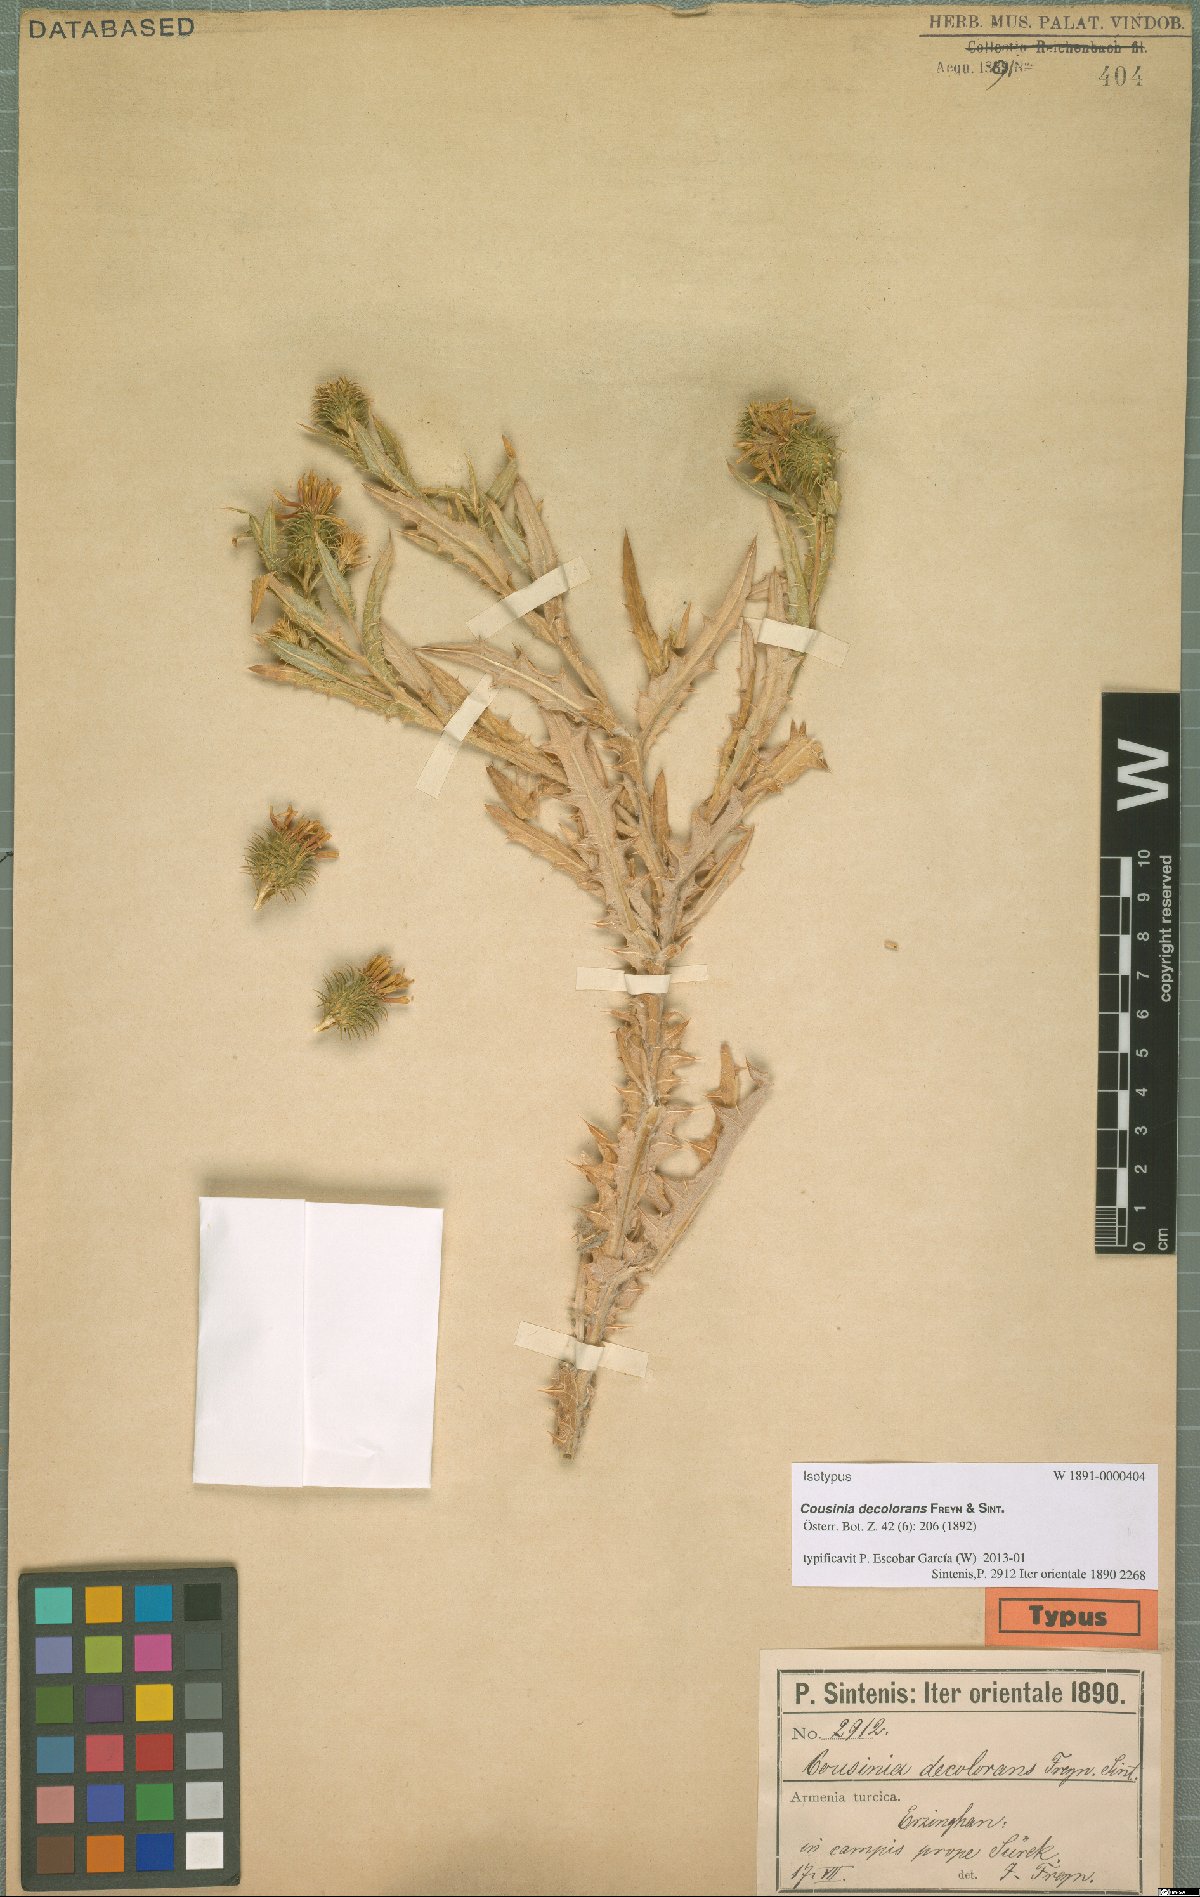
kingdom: Plantae
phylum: Tracheophyta
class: Magnoliopsida
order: Asterales
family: Asteraceae
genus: Cousinia
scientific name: Cousinia decolorans
